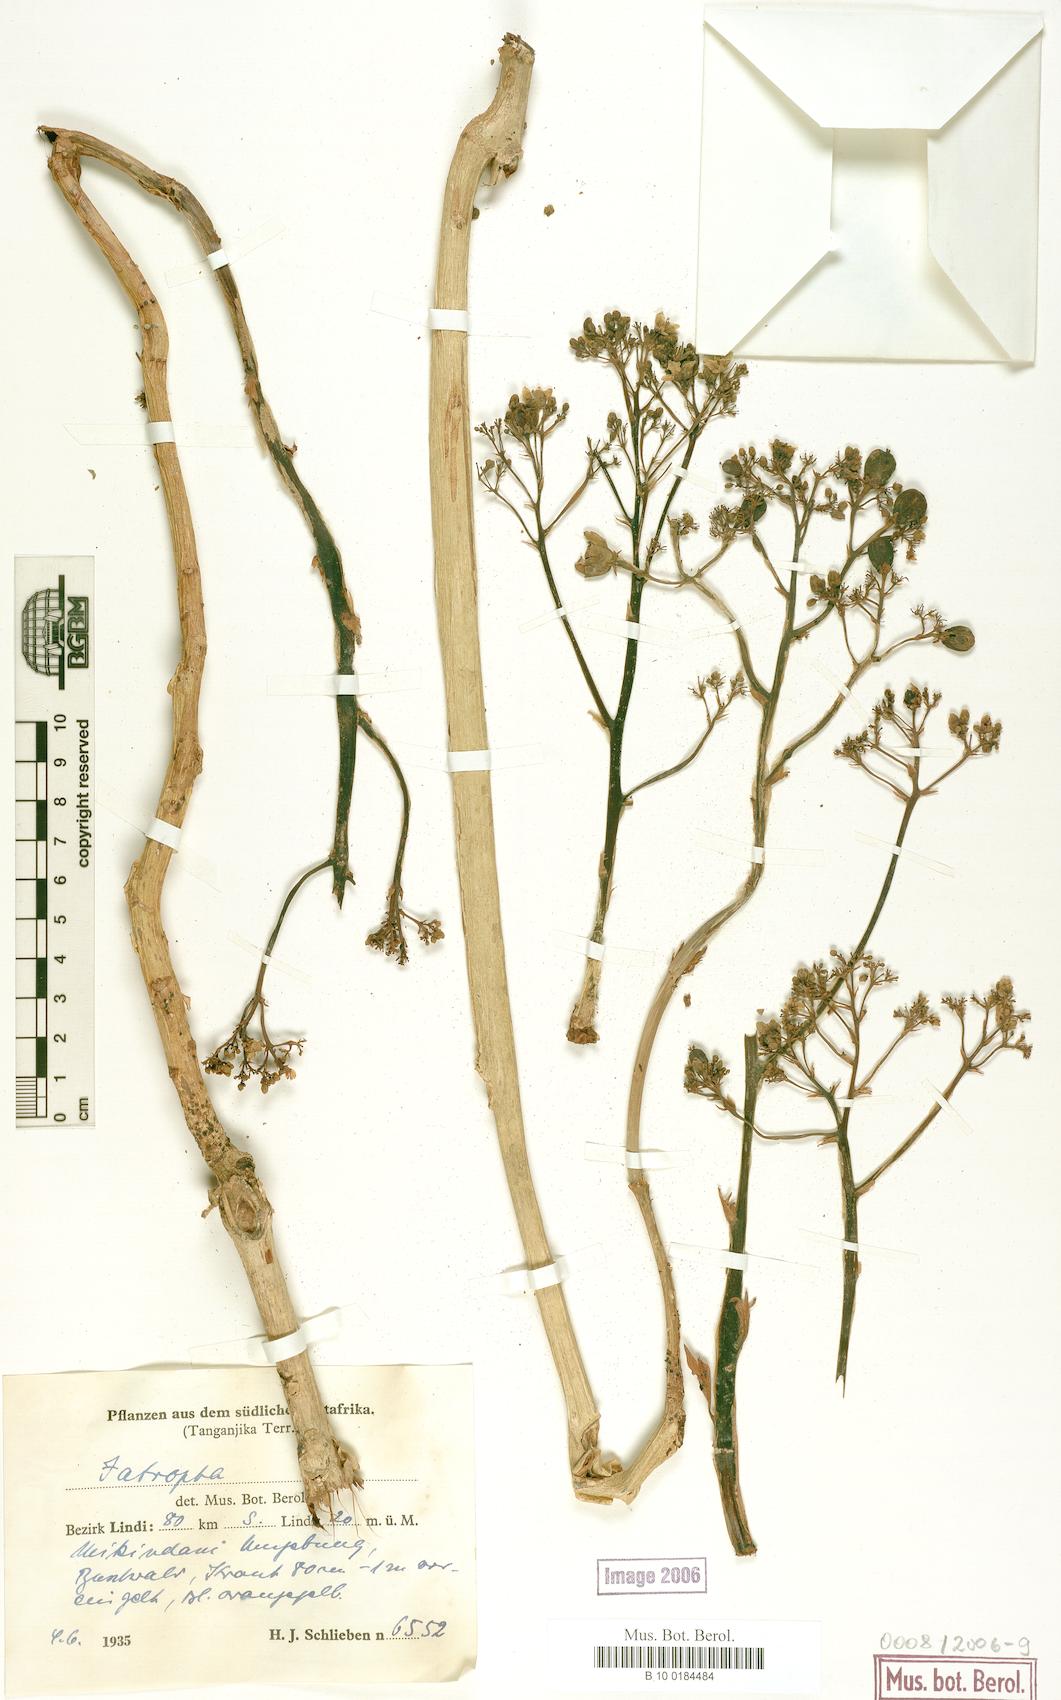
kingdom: Plantae
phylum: Tracheophyta
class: Magnoliopsida
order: Malpighiales
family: Euphorbiaceae
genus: Jatropha
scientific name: Jatropha
